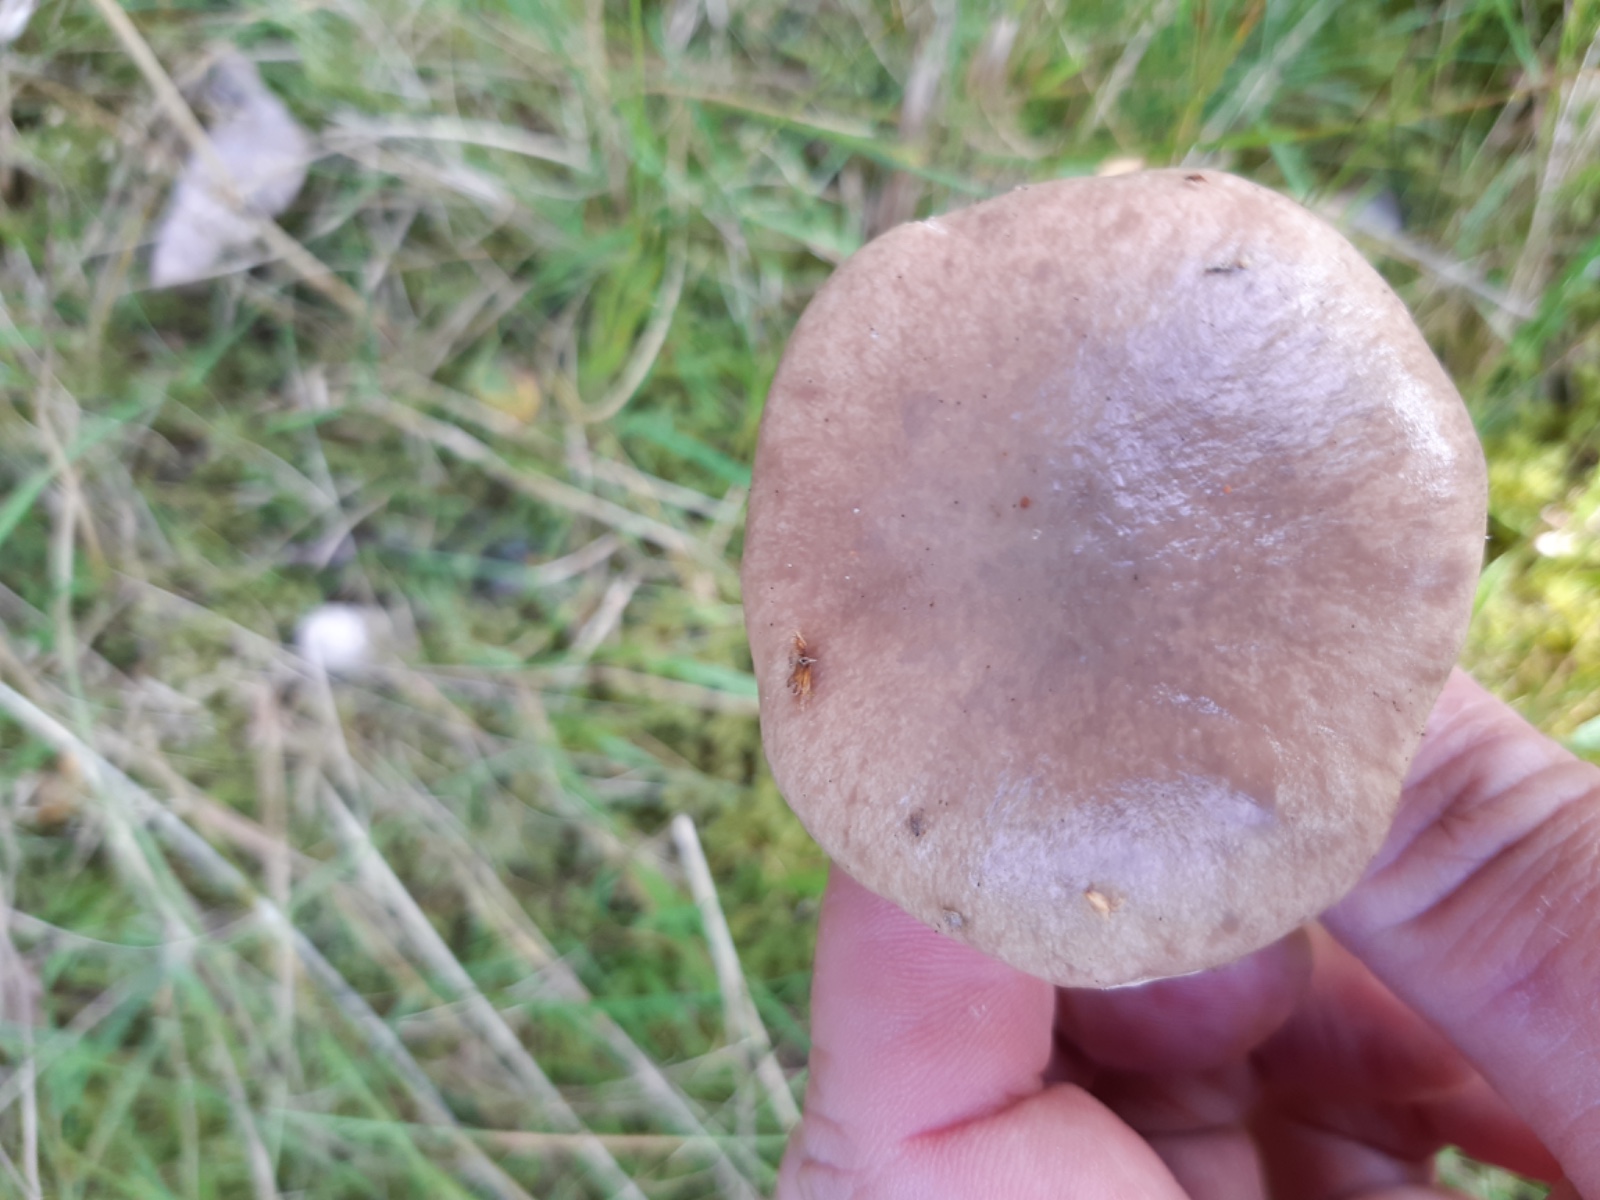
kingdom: Fungi
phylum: Basidiomycota
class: Agaricomycetes
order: Boletales
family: Gomphidiaceae
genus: Gomphidius
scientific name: Gomphidius glutinosus
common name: grå slimslør
